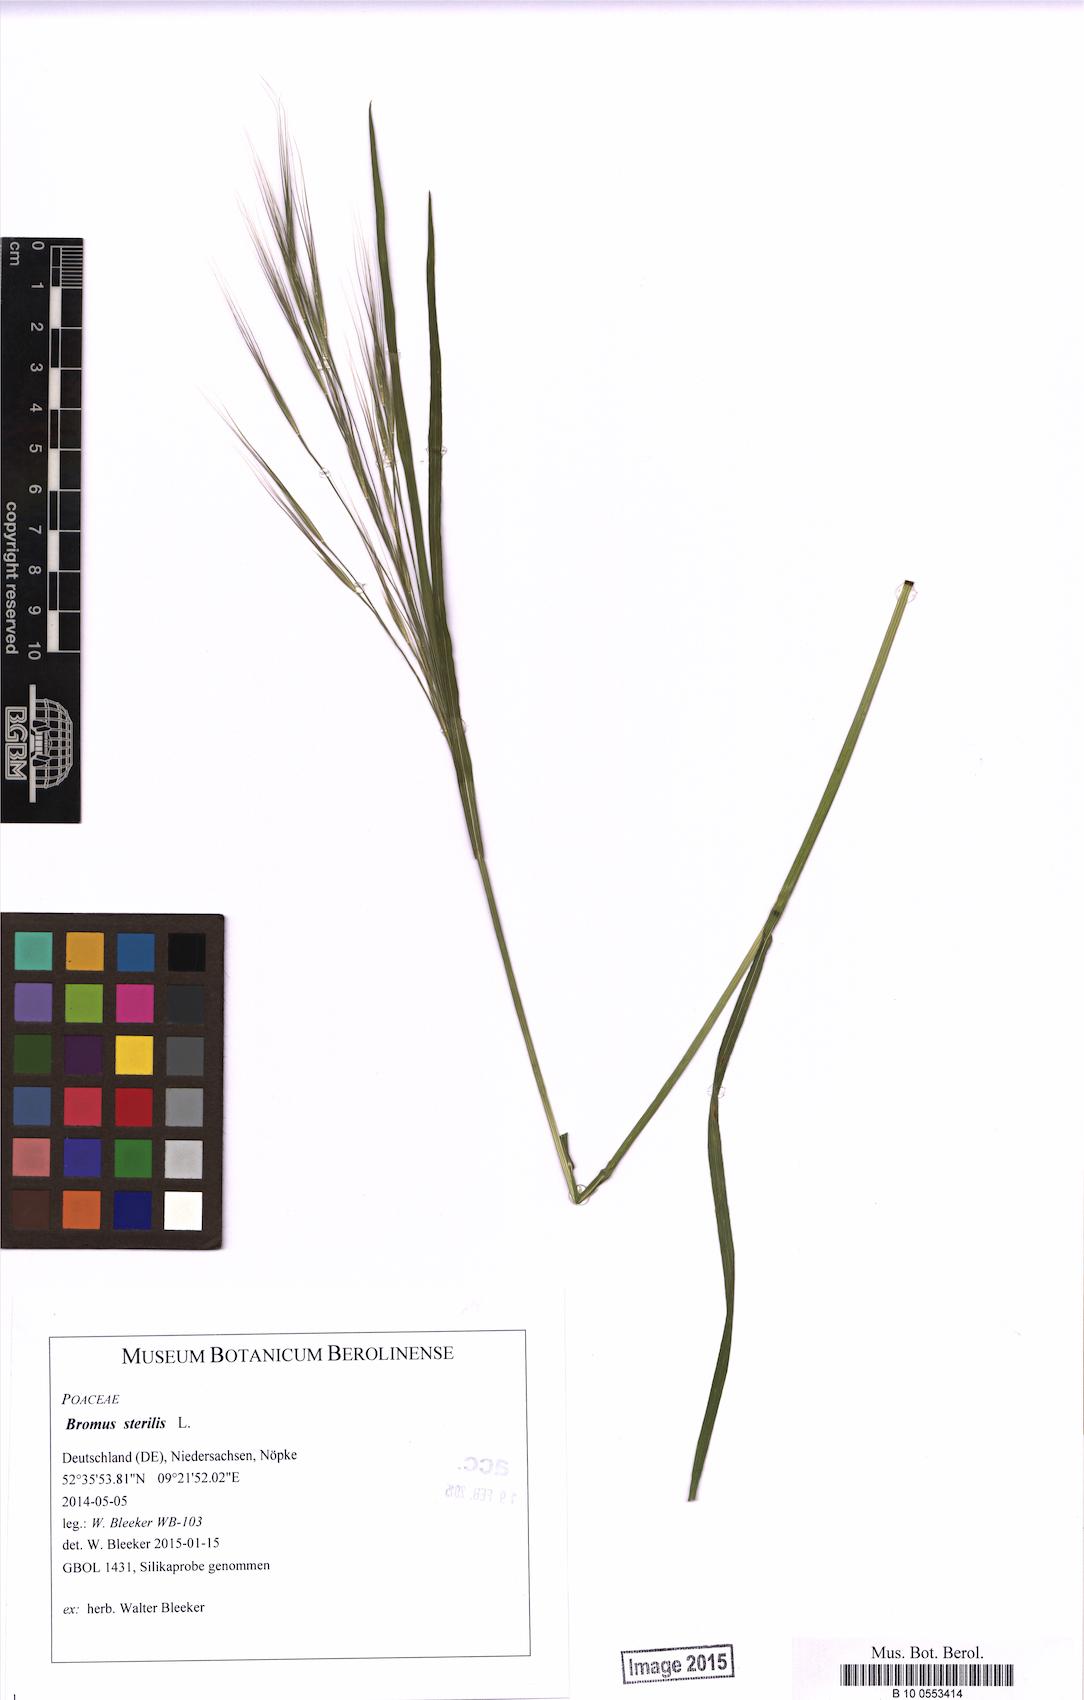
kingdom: Plantae
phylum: Tracheophyta
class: Liliopsida
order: Poales
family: Poaceae
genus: Bromus
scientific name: Bromus sterilis
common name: Poverty brome
